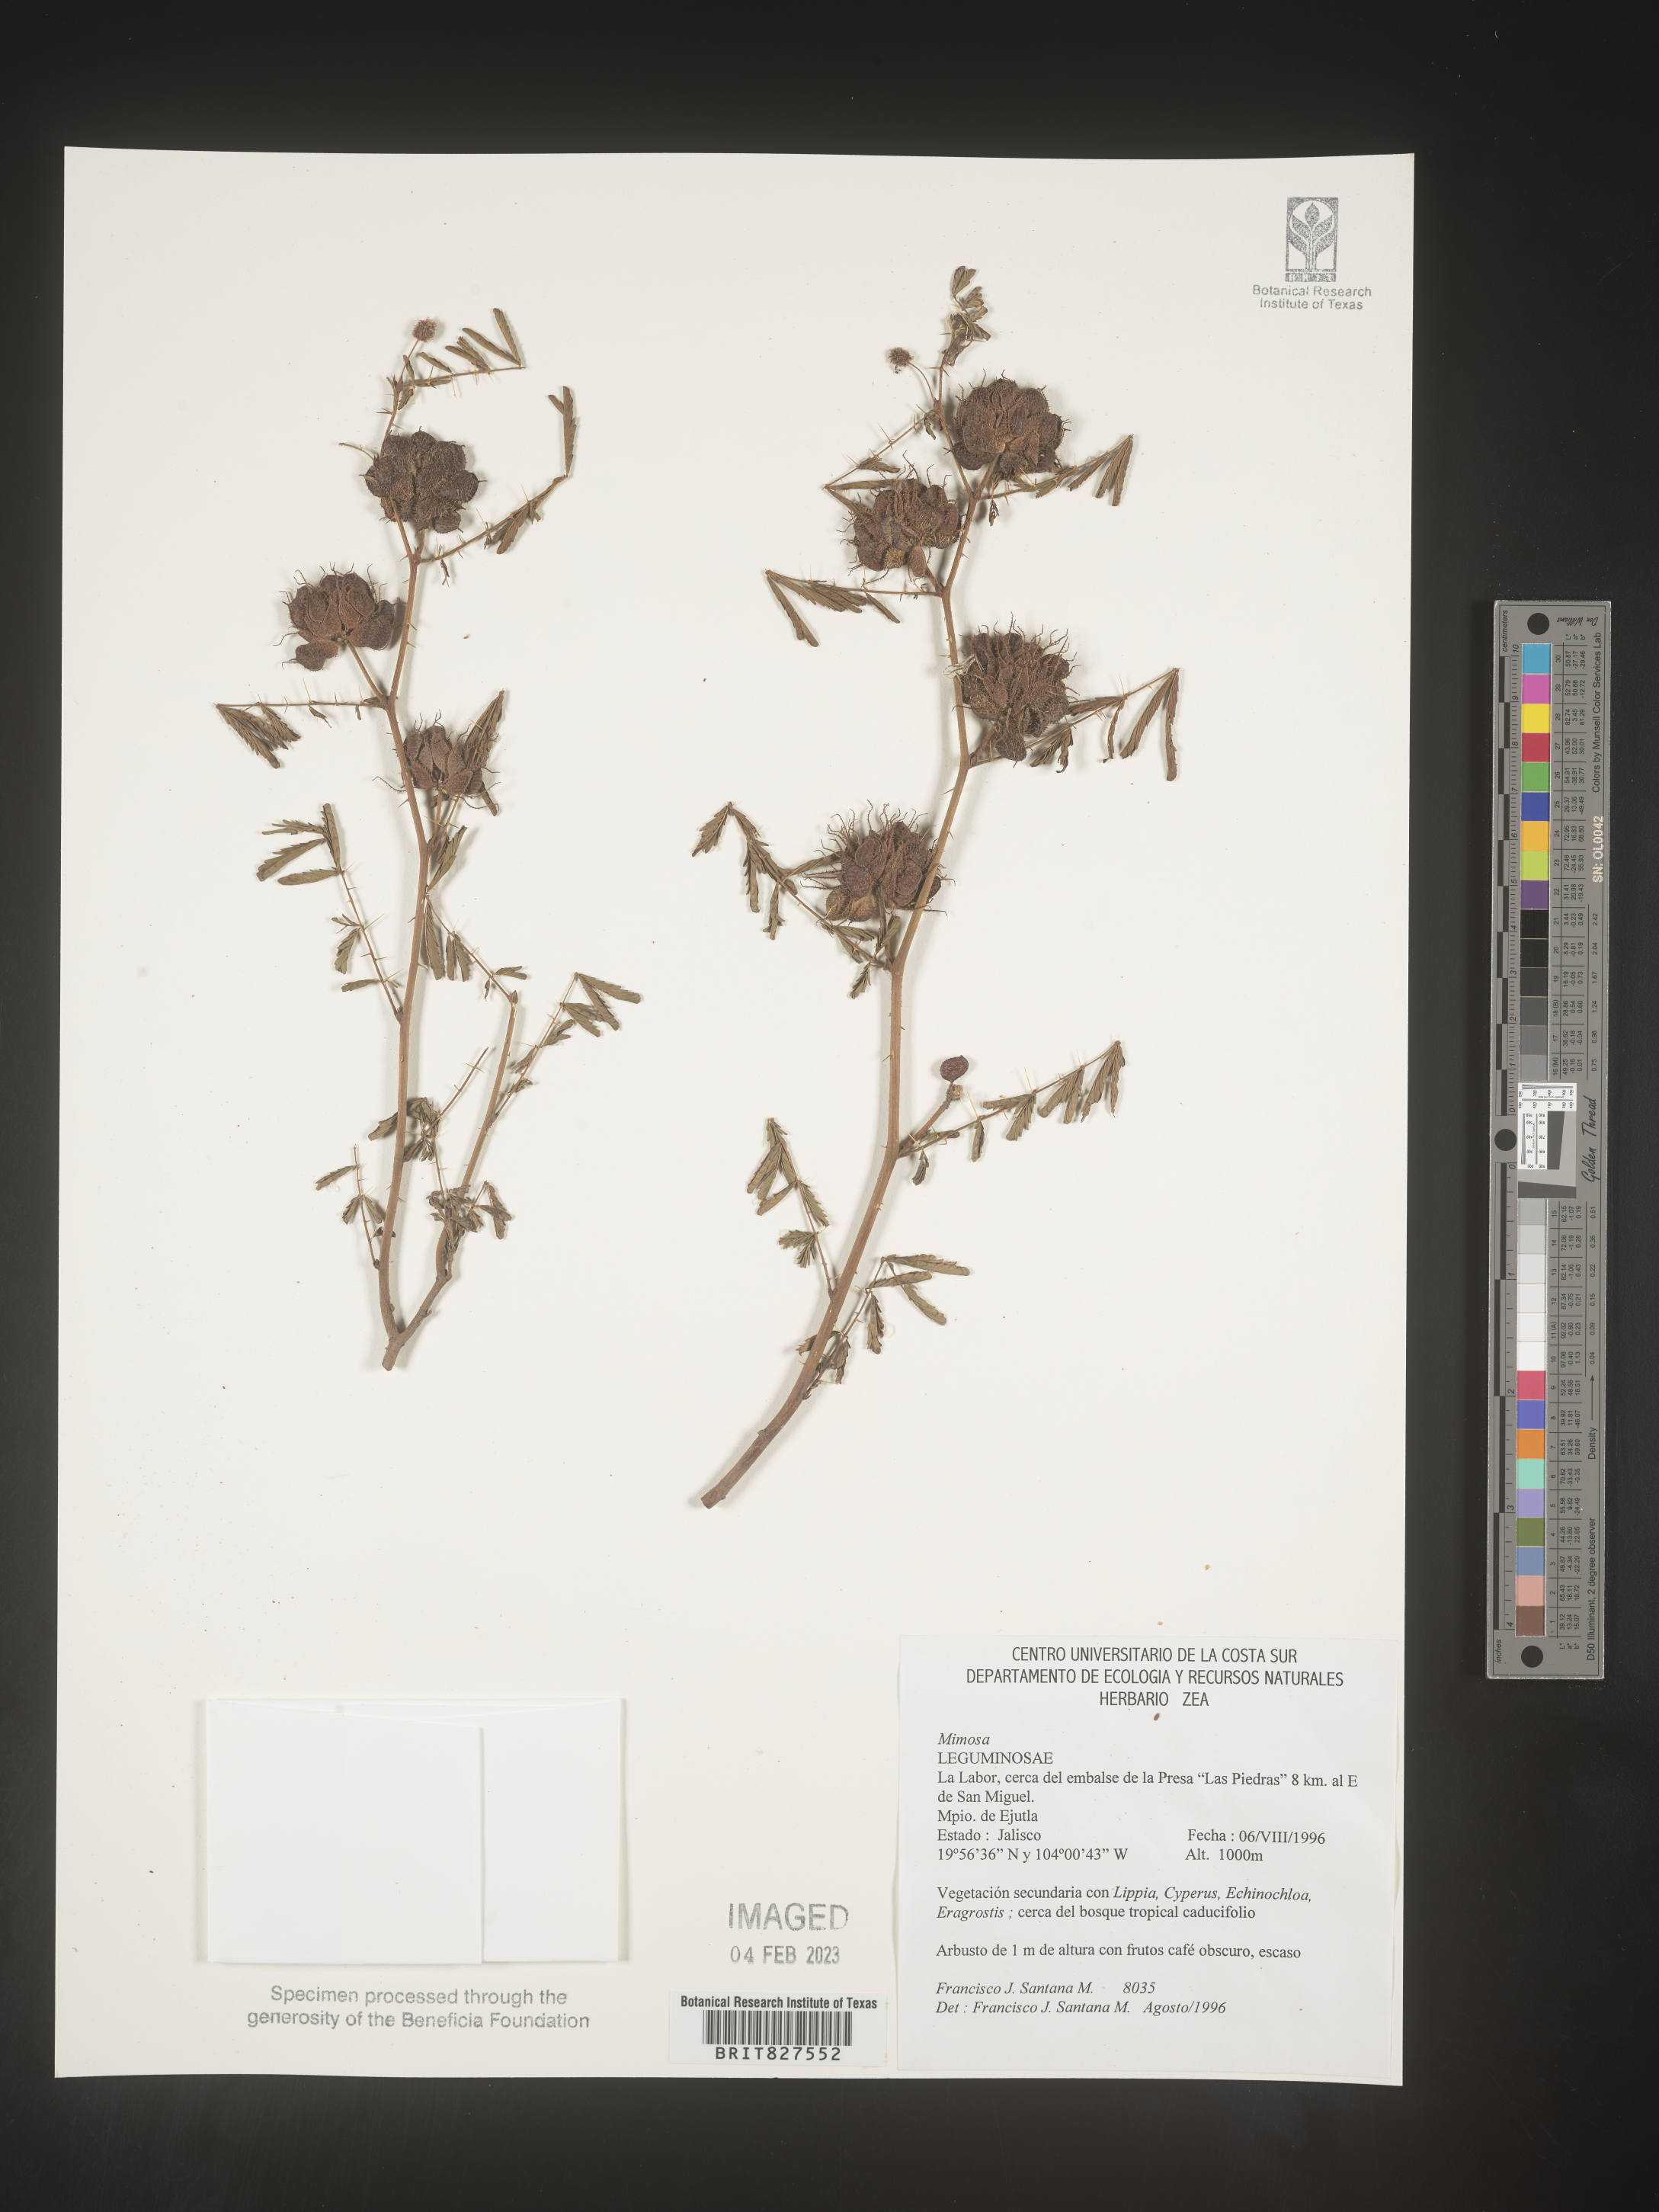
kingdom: Plantae
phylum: Tracheophyta
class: Magnoliopsida
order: Fabales
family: Fabaceae
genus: Mimosa
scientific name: Mimosa
